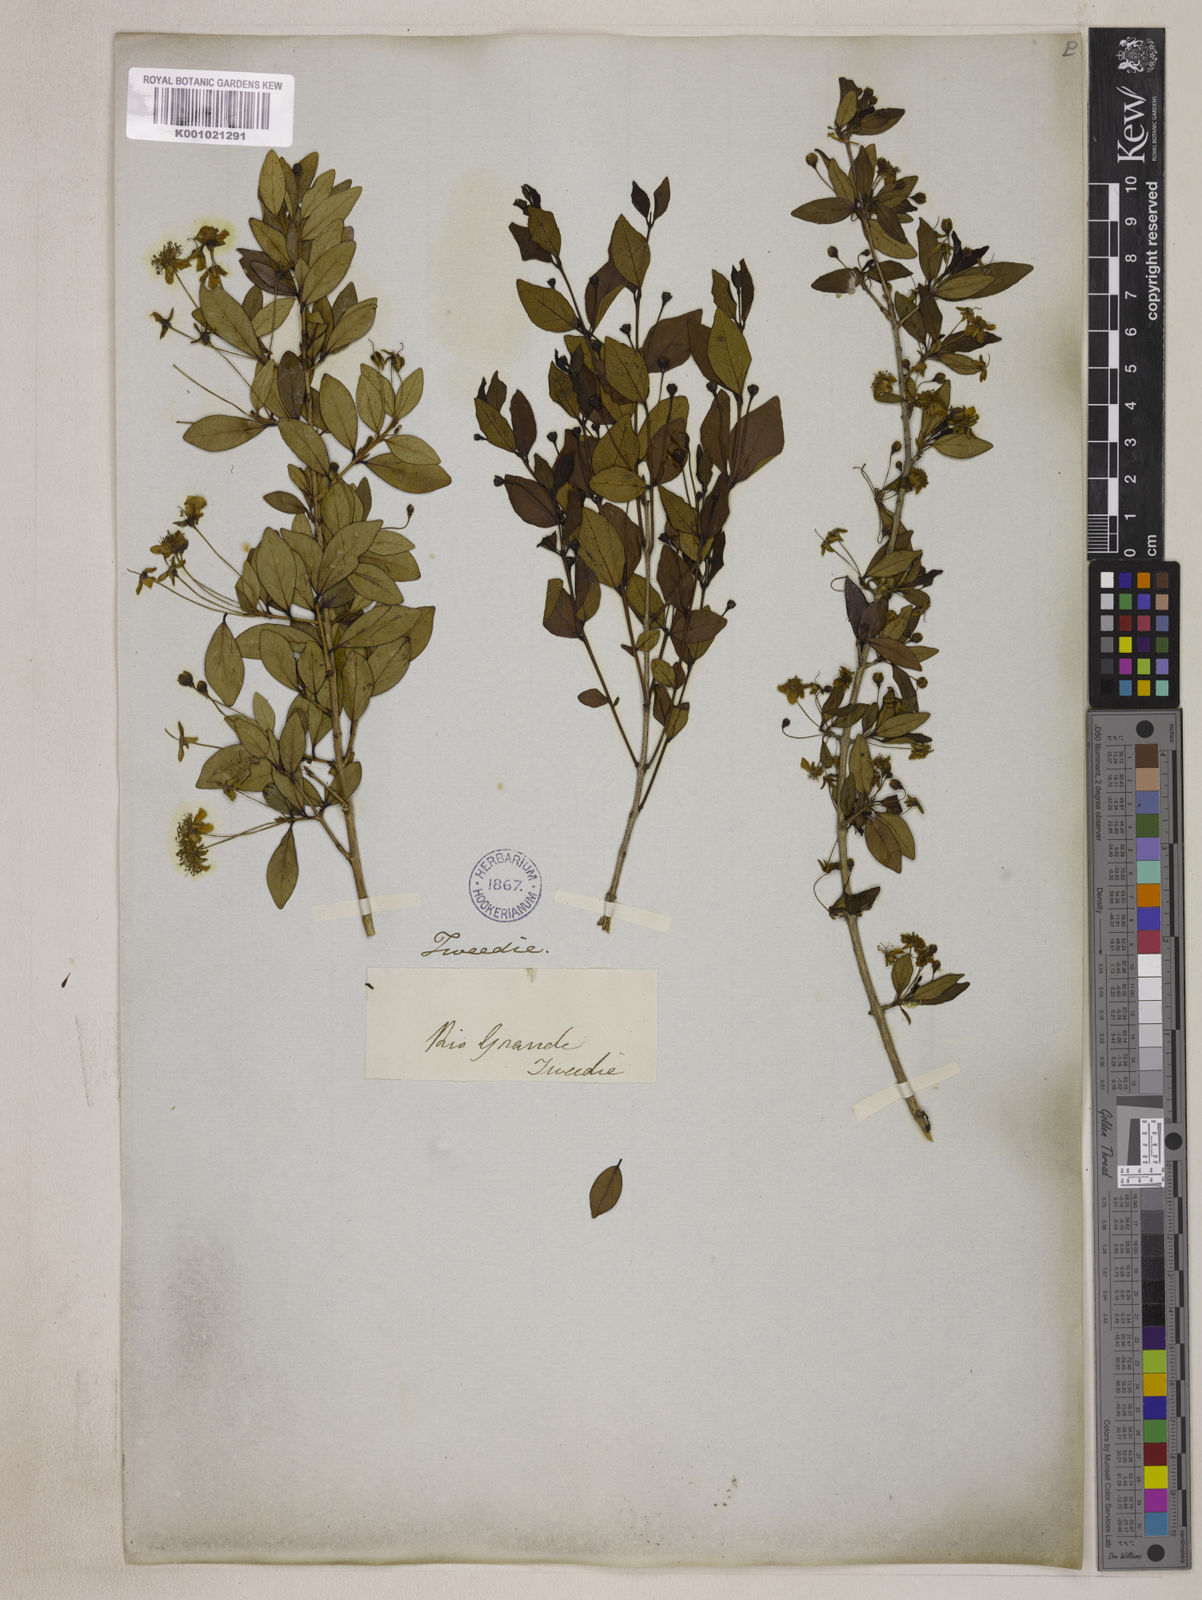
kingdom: Plantae
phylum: Tracheophyta
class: Magnoliopsida
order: Myrtales
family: Myrtaceae
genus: Eugenia
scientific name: Eugenia uniflora
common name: Surinam cherry
